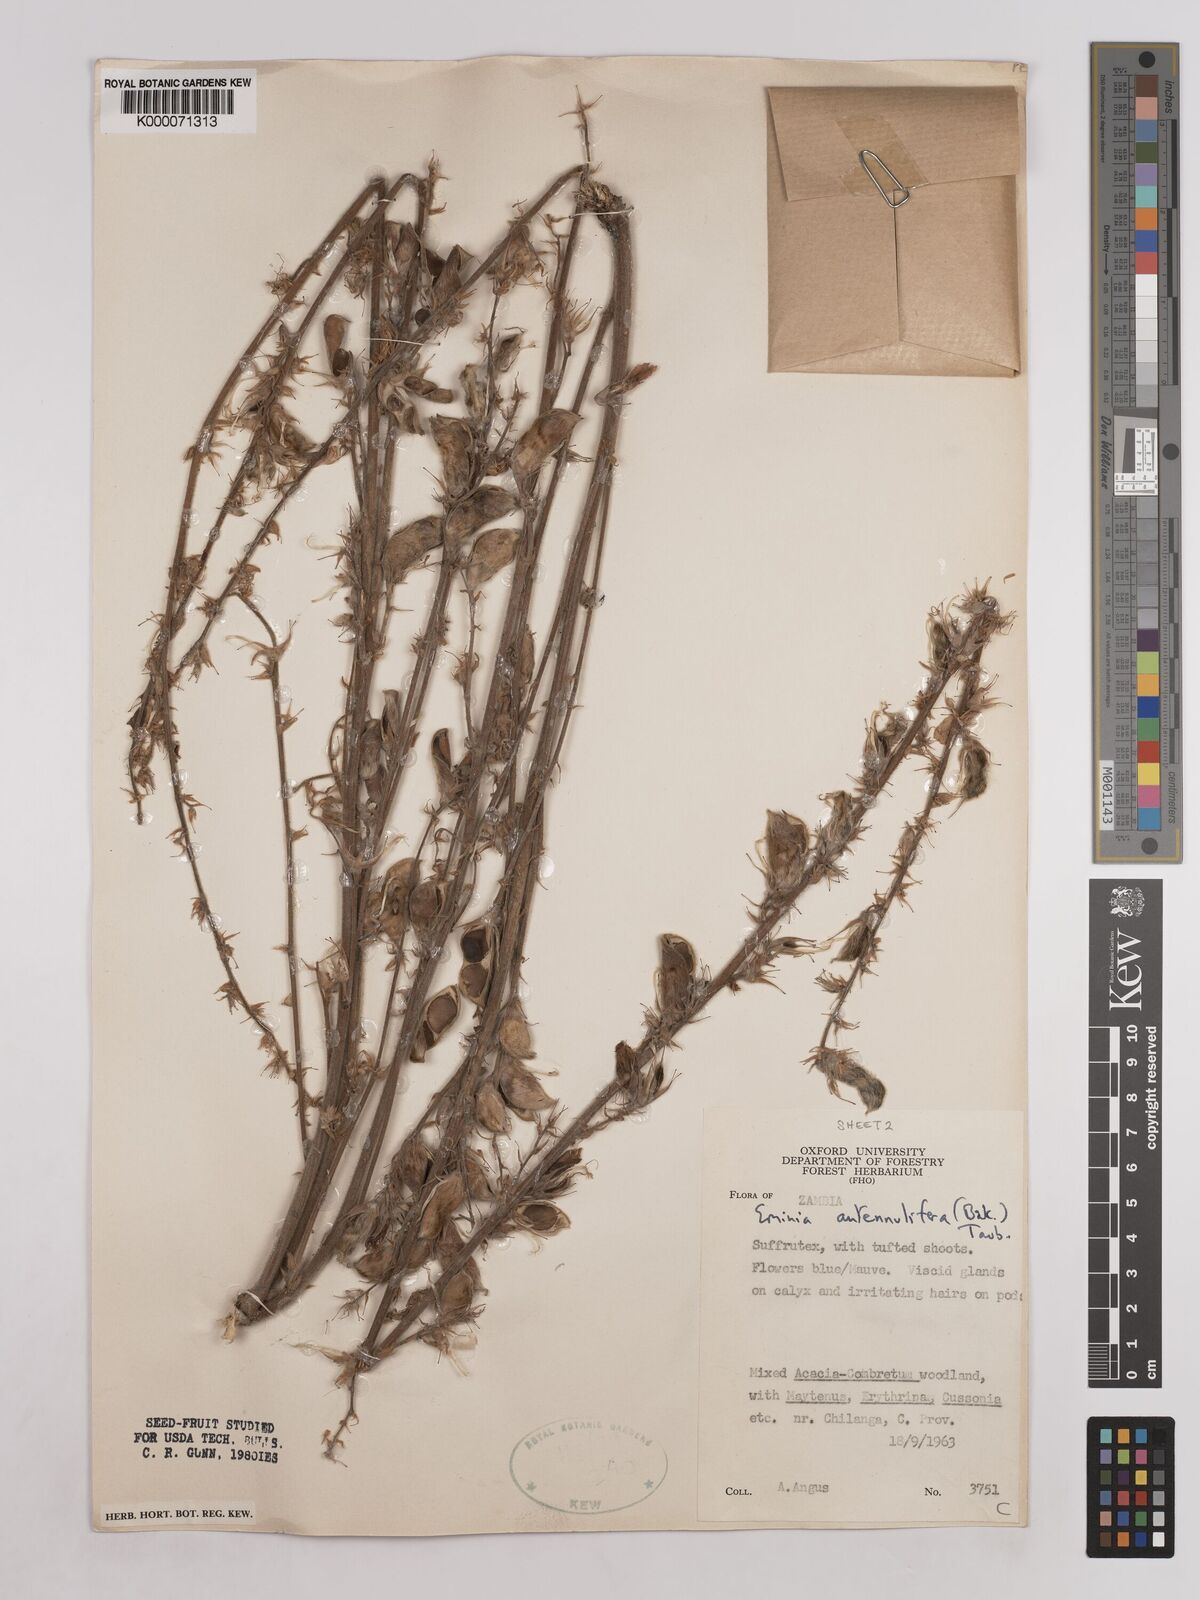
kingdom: Plantae
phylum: Tracheophyta
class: Magnoliopsida
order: Fabales
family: Fabaceae
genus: Eminia
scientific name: Eminia antennulifera
